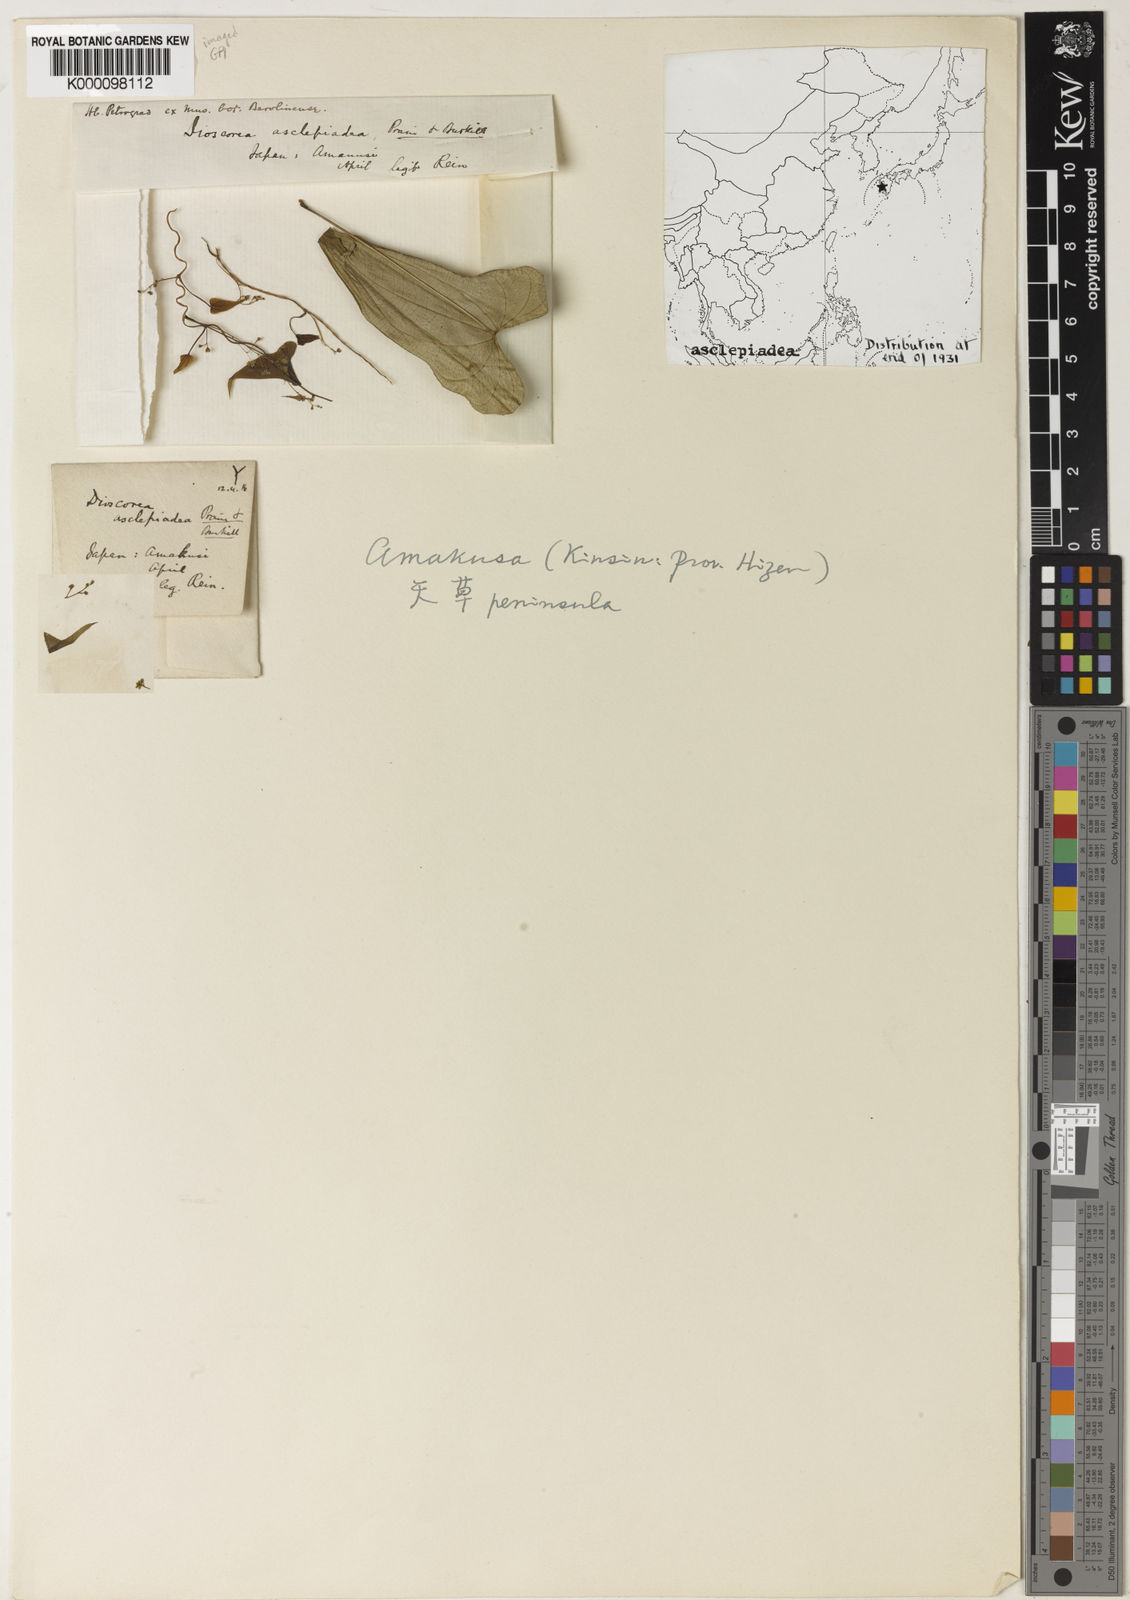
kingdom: Plantae
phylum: Tracheophyta
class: Liliopsida
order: Dioscoreales
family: Dioscoreaceae
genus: Dioscorea
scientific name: Dioscorea asclepiadea
